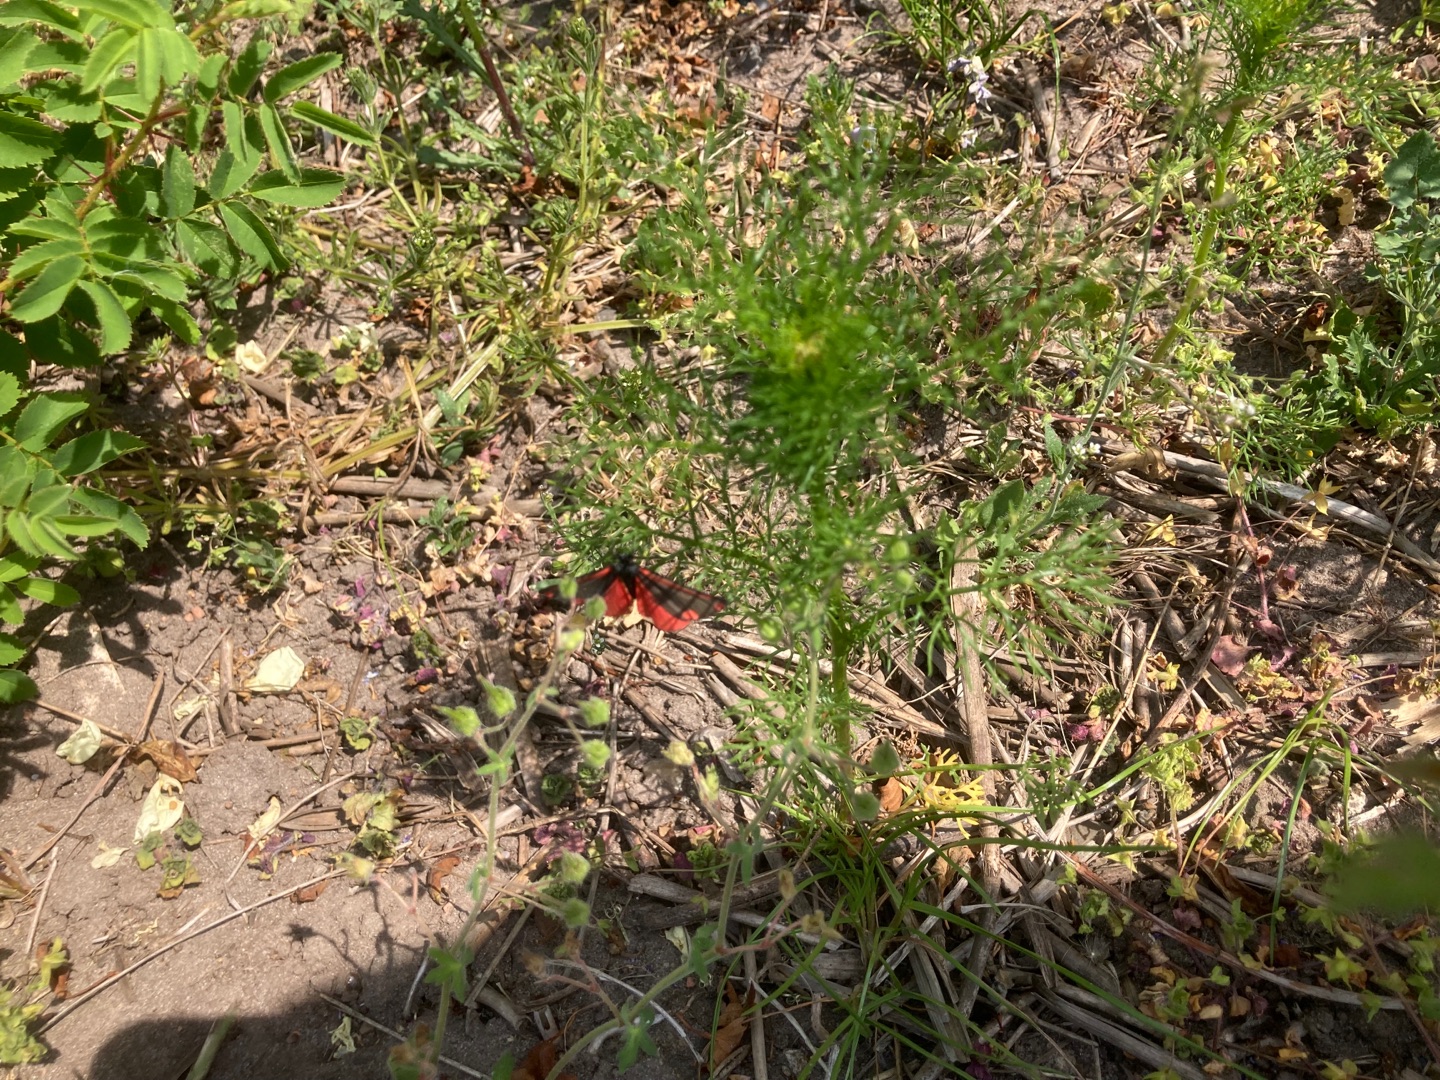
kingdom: Animalia
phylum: Arthropoda
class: Insecta
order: Lepidoptera
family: Erebidae
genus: Tyria
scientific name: Tyria jacobaeae
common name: Blodplet
